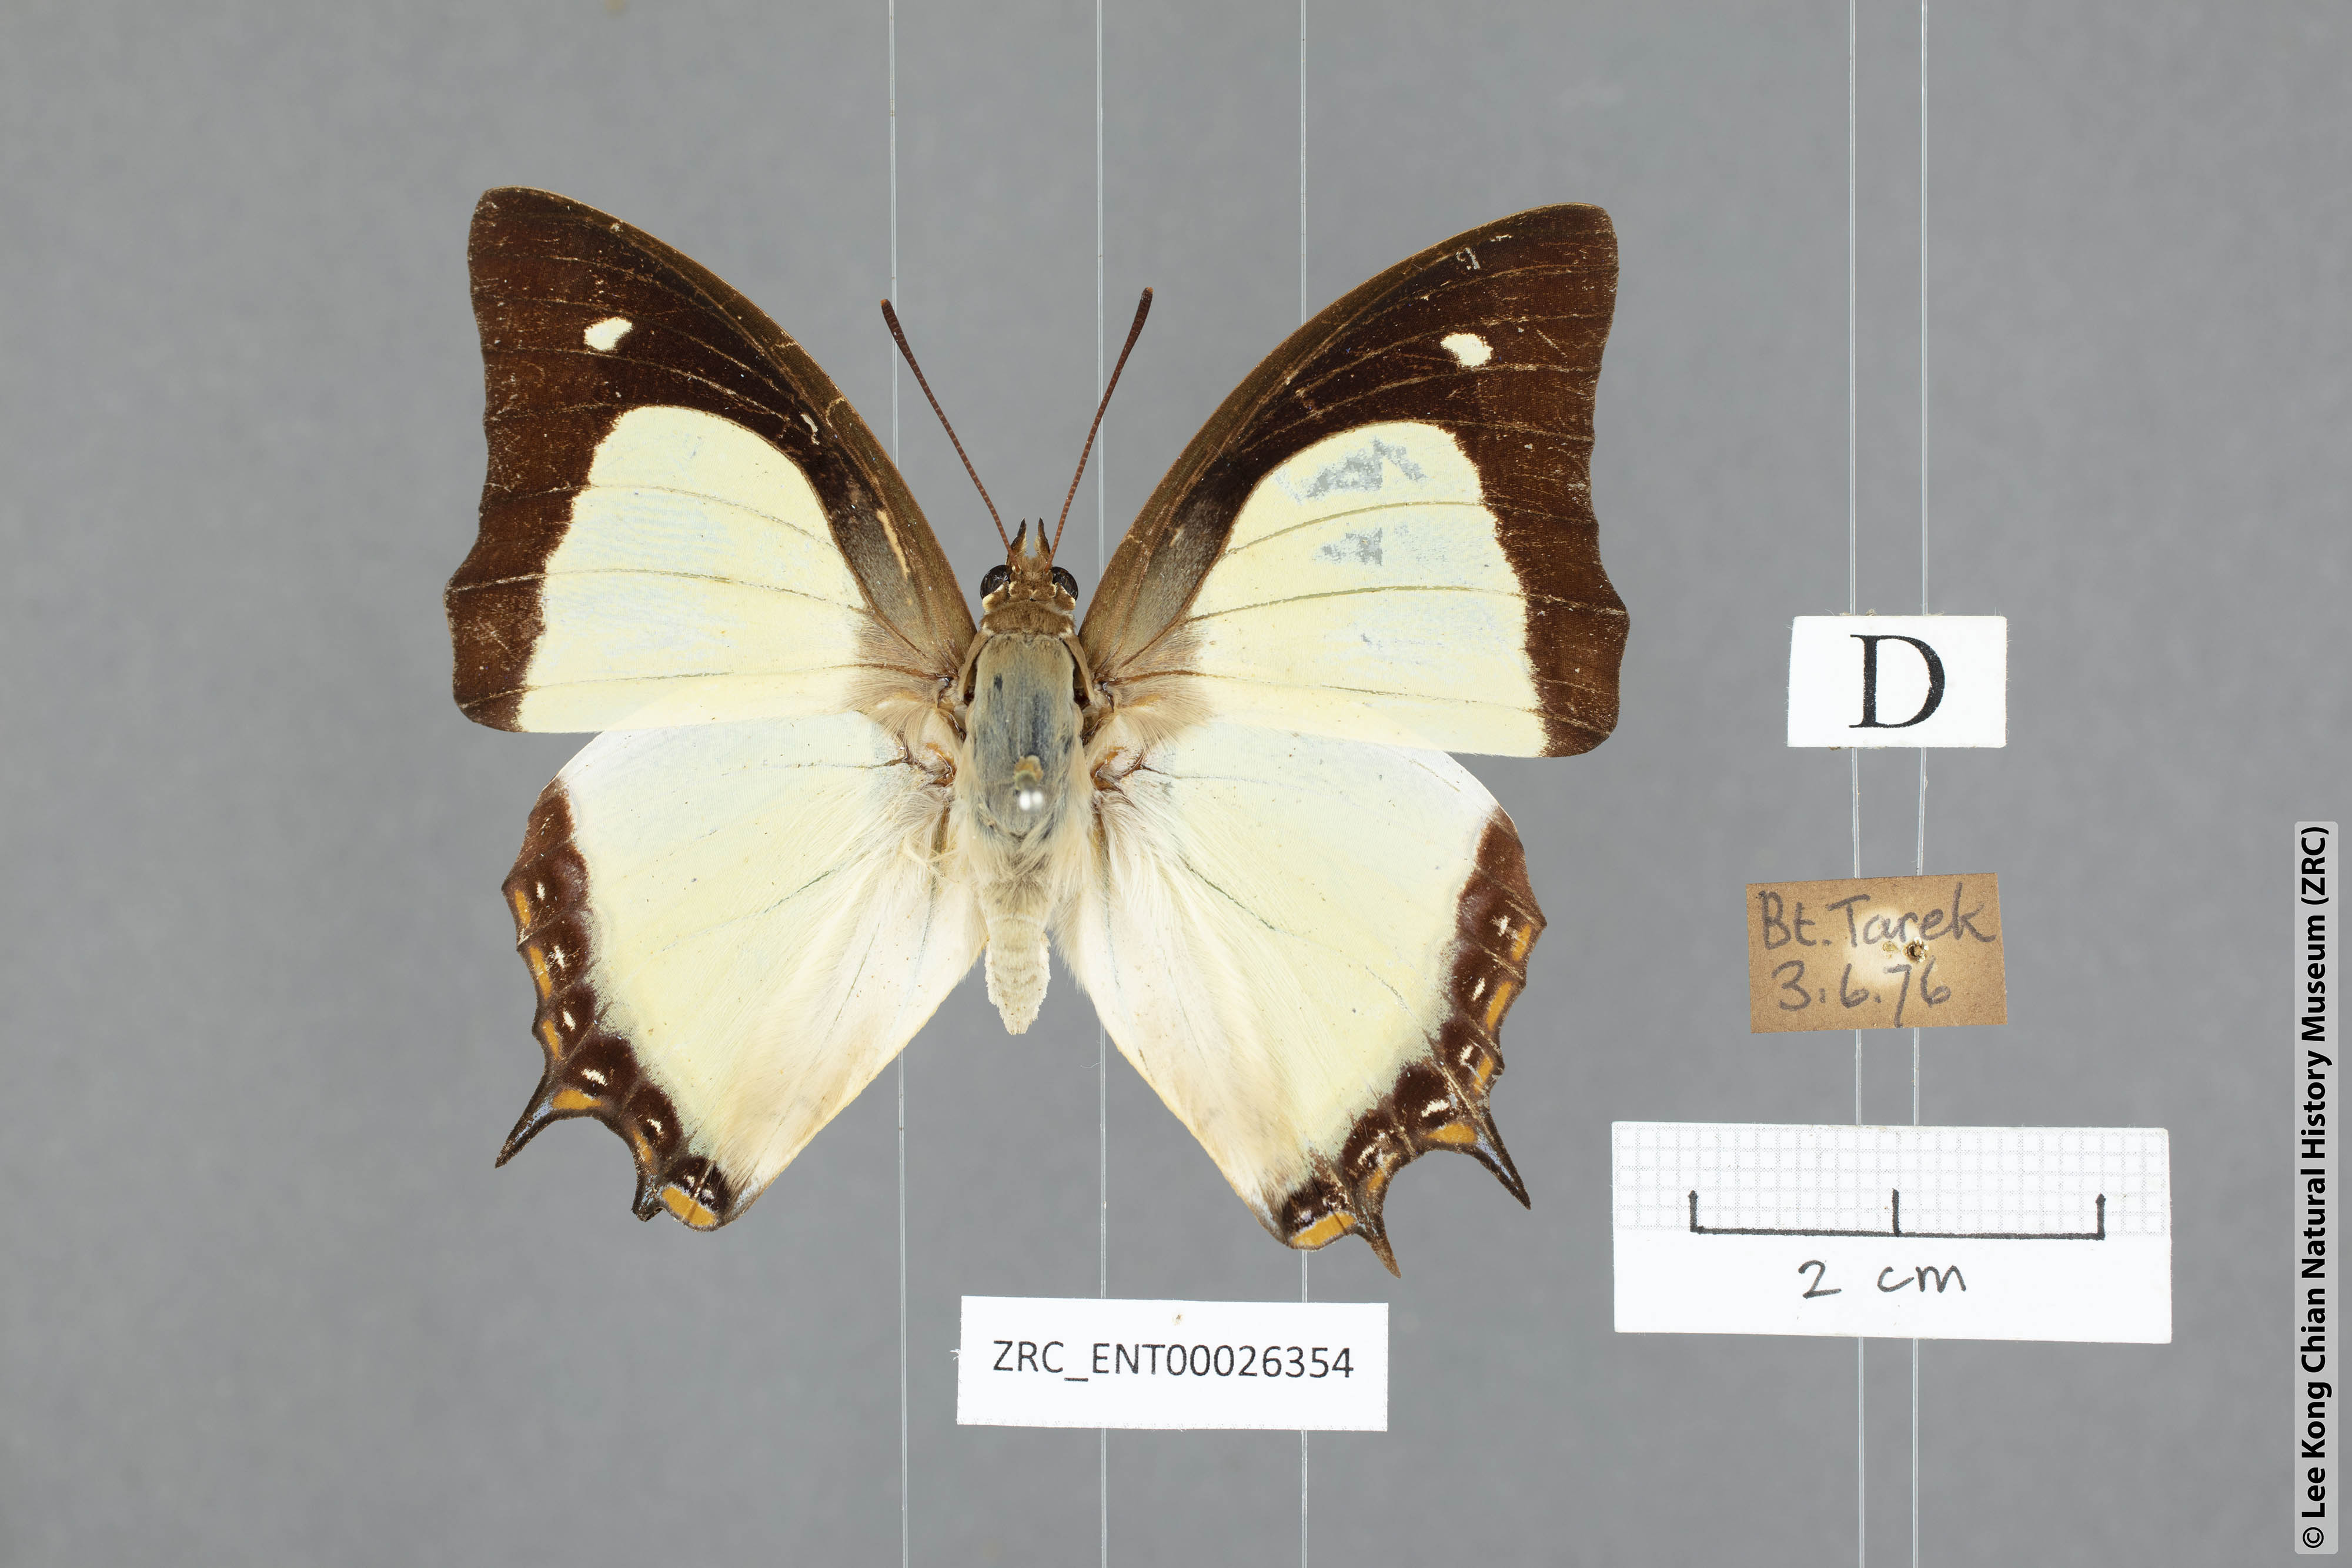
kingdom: Animalia
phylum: Arthropoda
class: Insecta
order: Lepidoptera
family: Nymphalidae
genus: Polyura
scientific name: Polyura jalysus
